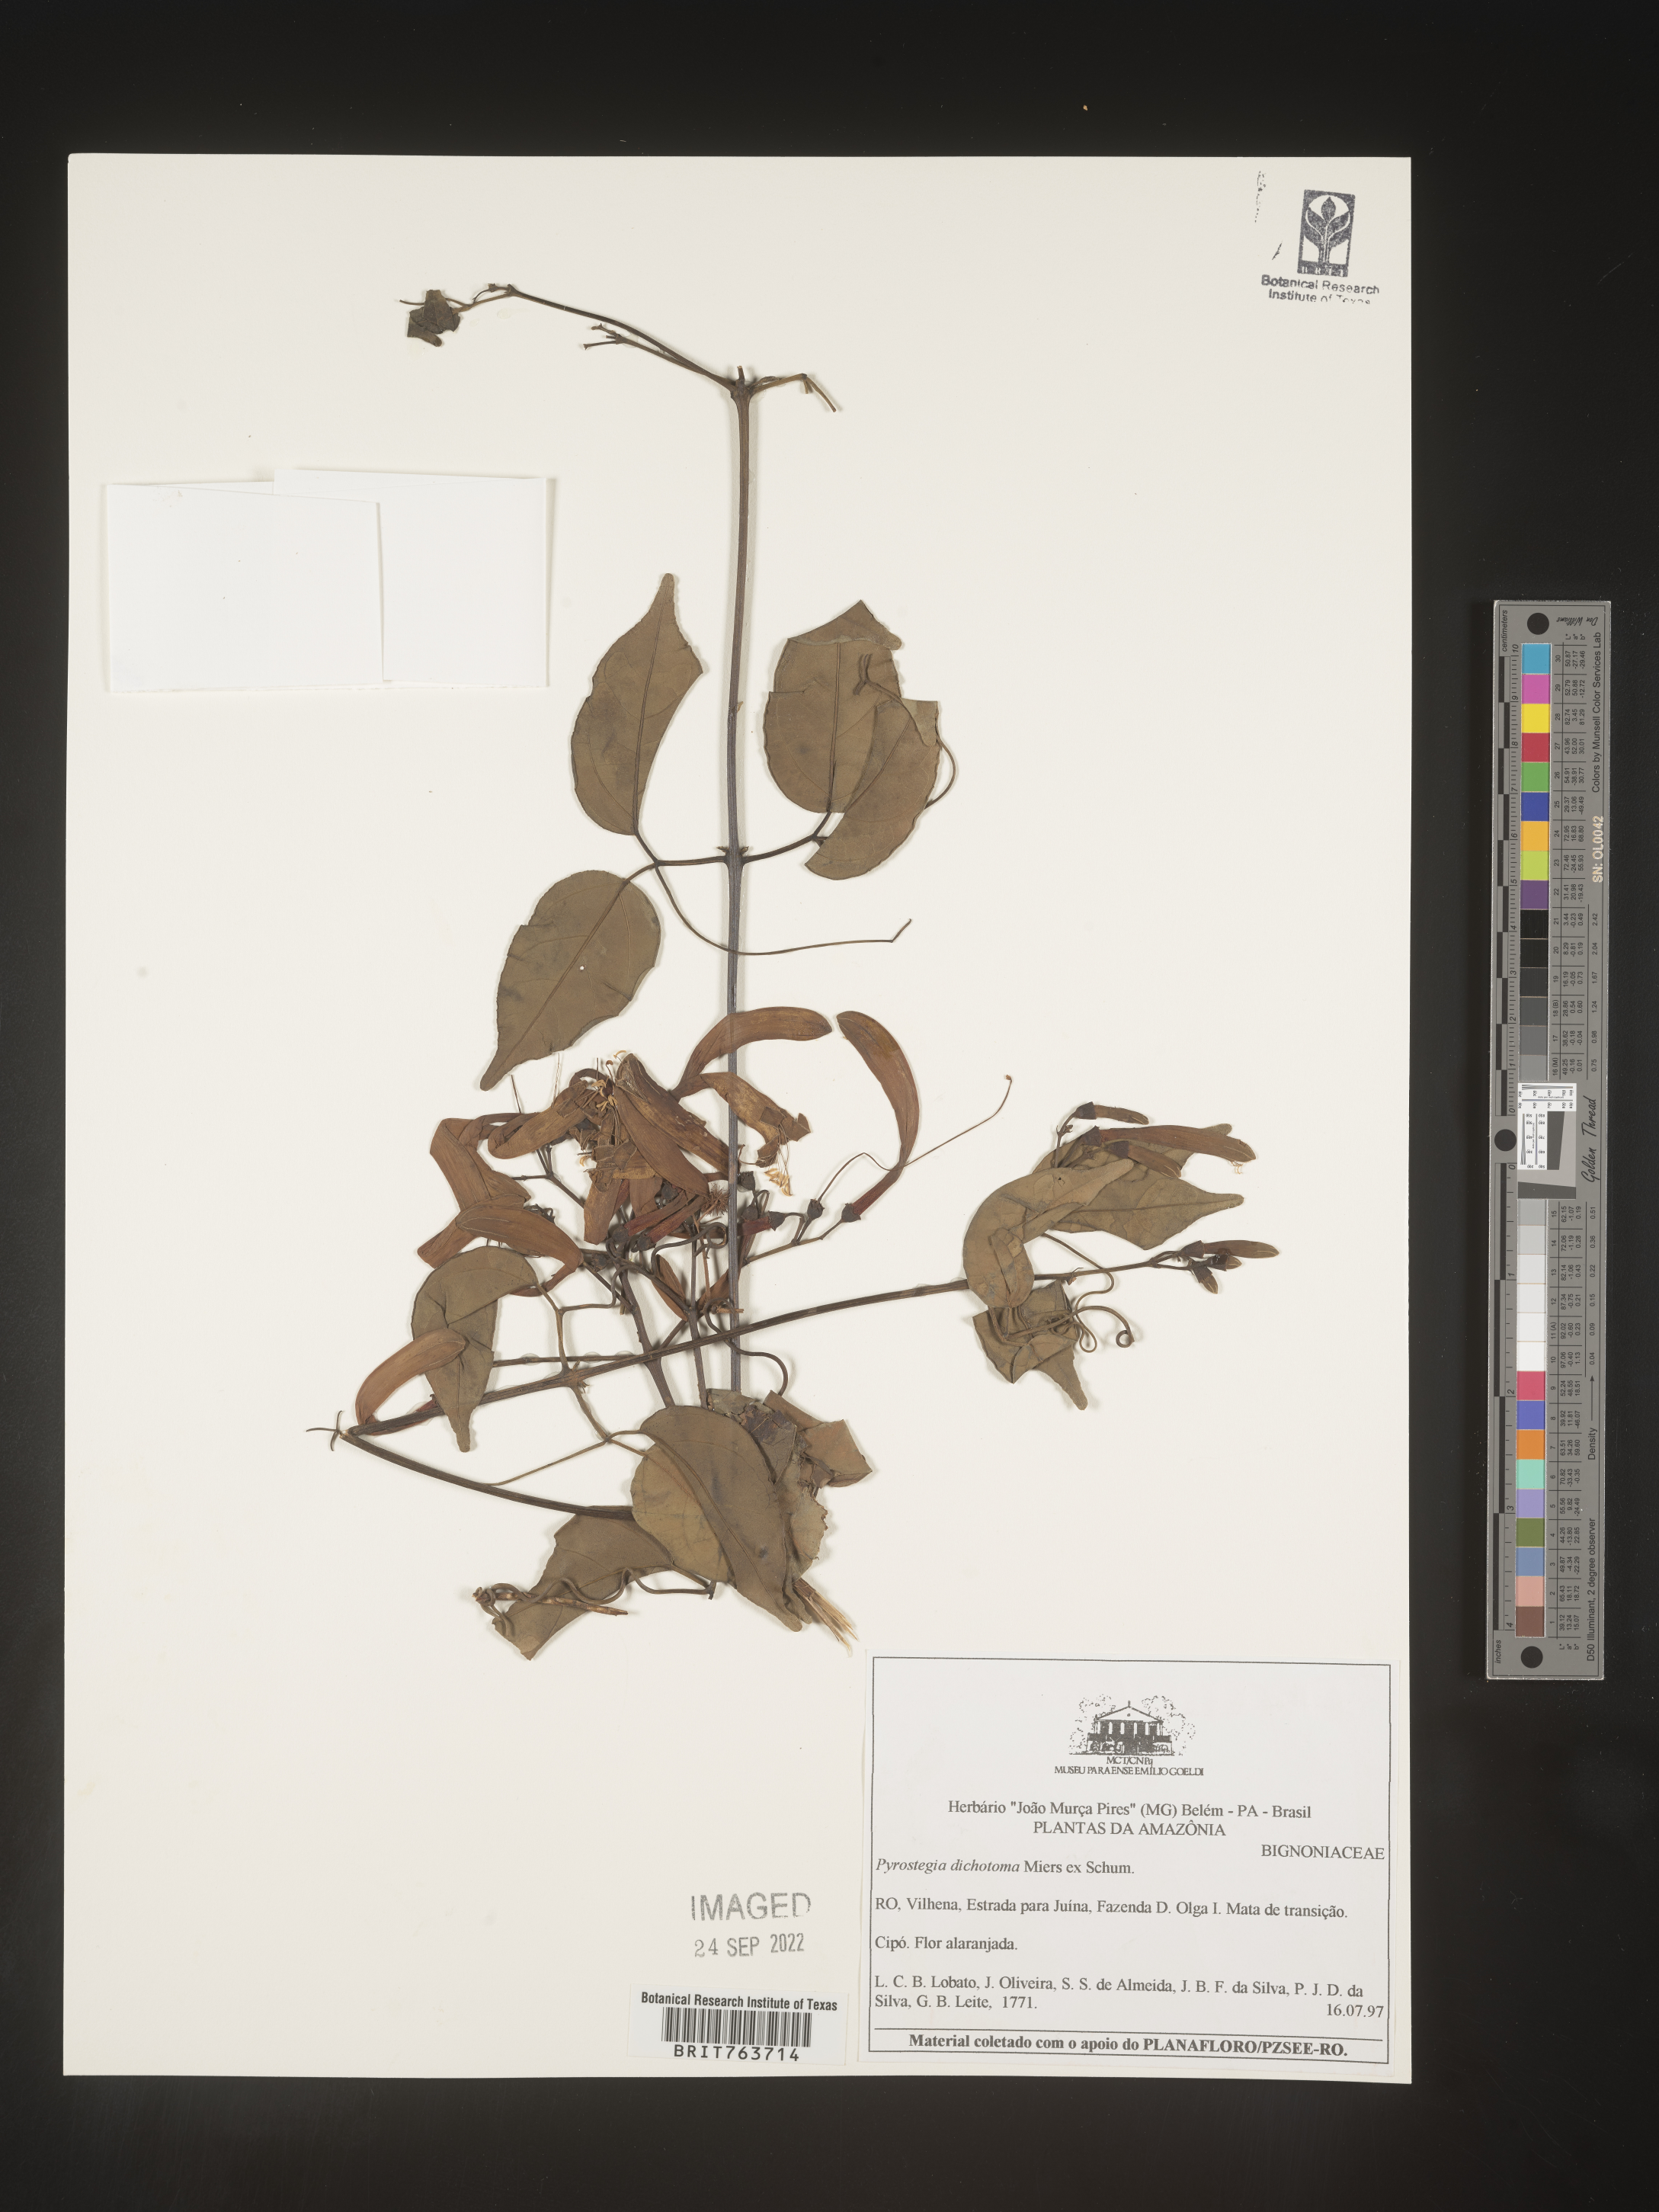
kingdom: Plantae
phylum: Tracheophyta
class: Magnoliopsida
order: Lamiales
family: Bignoniaceae
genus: Pyrostegia
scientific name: Pyrostegia
